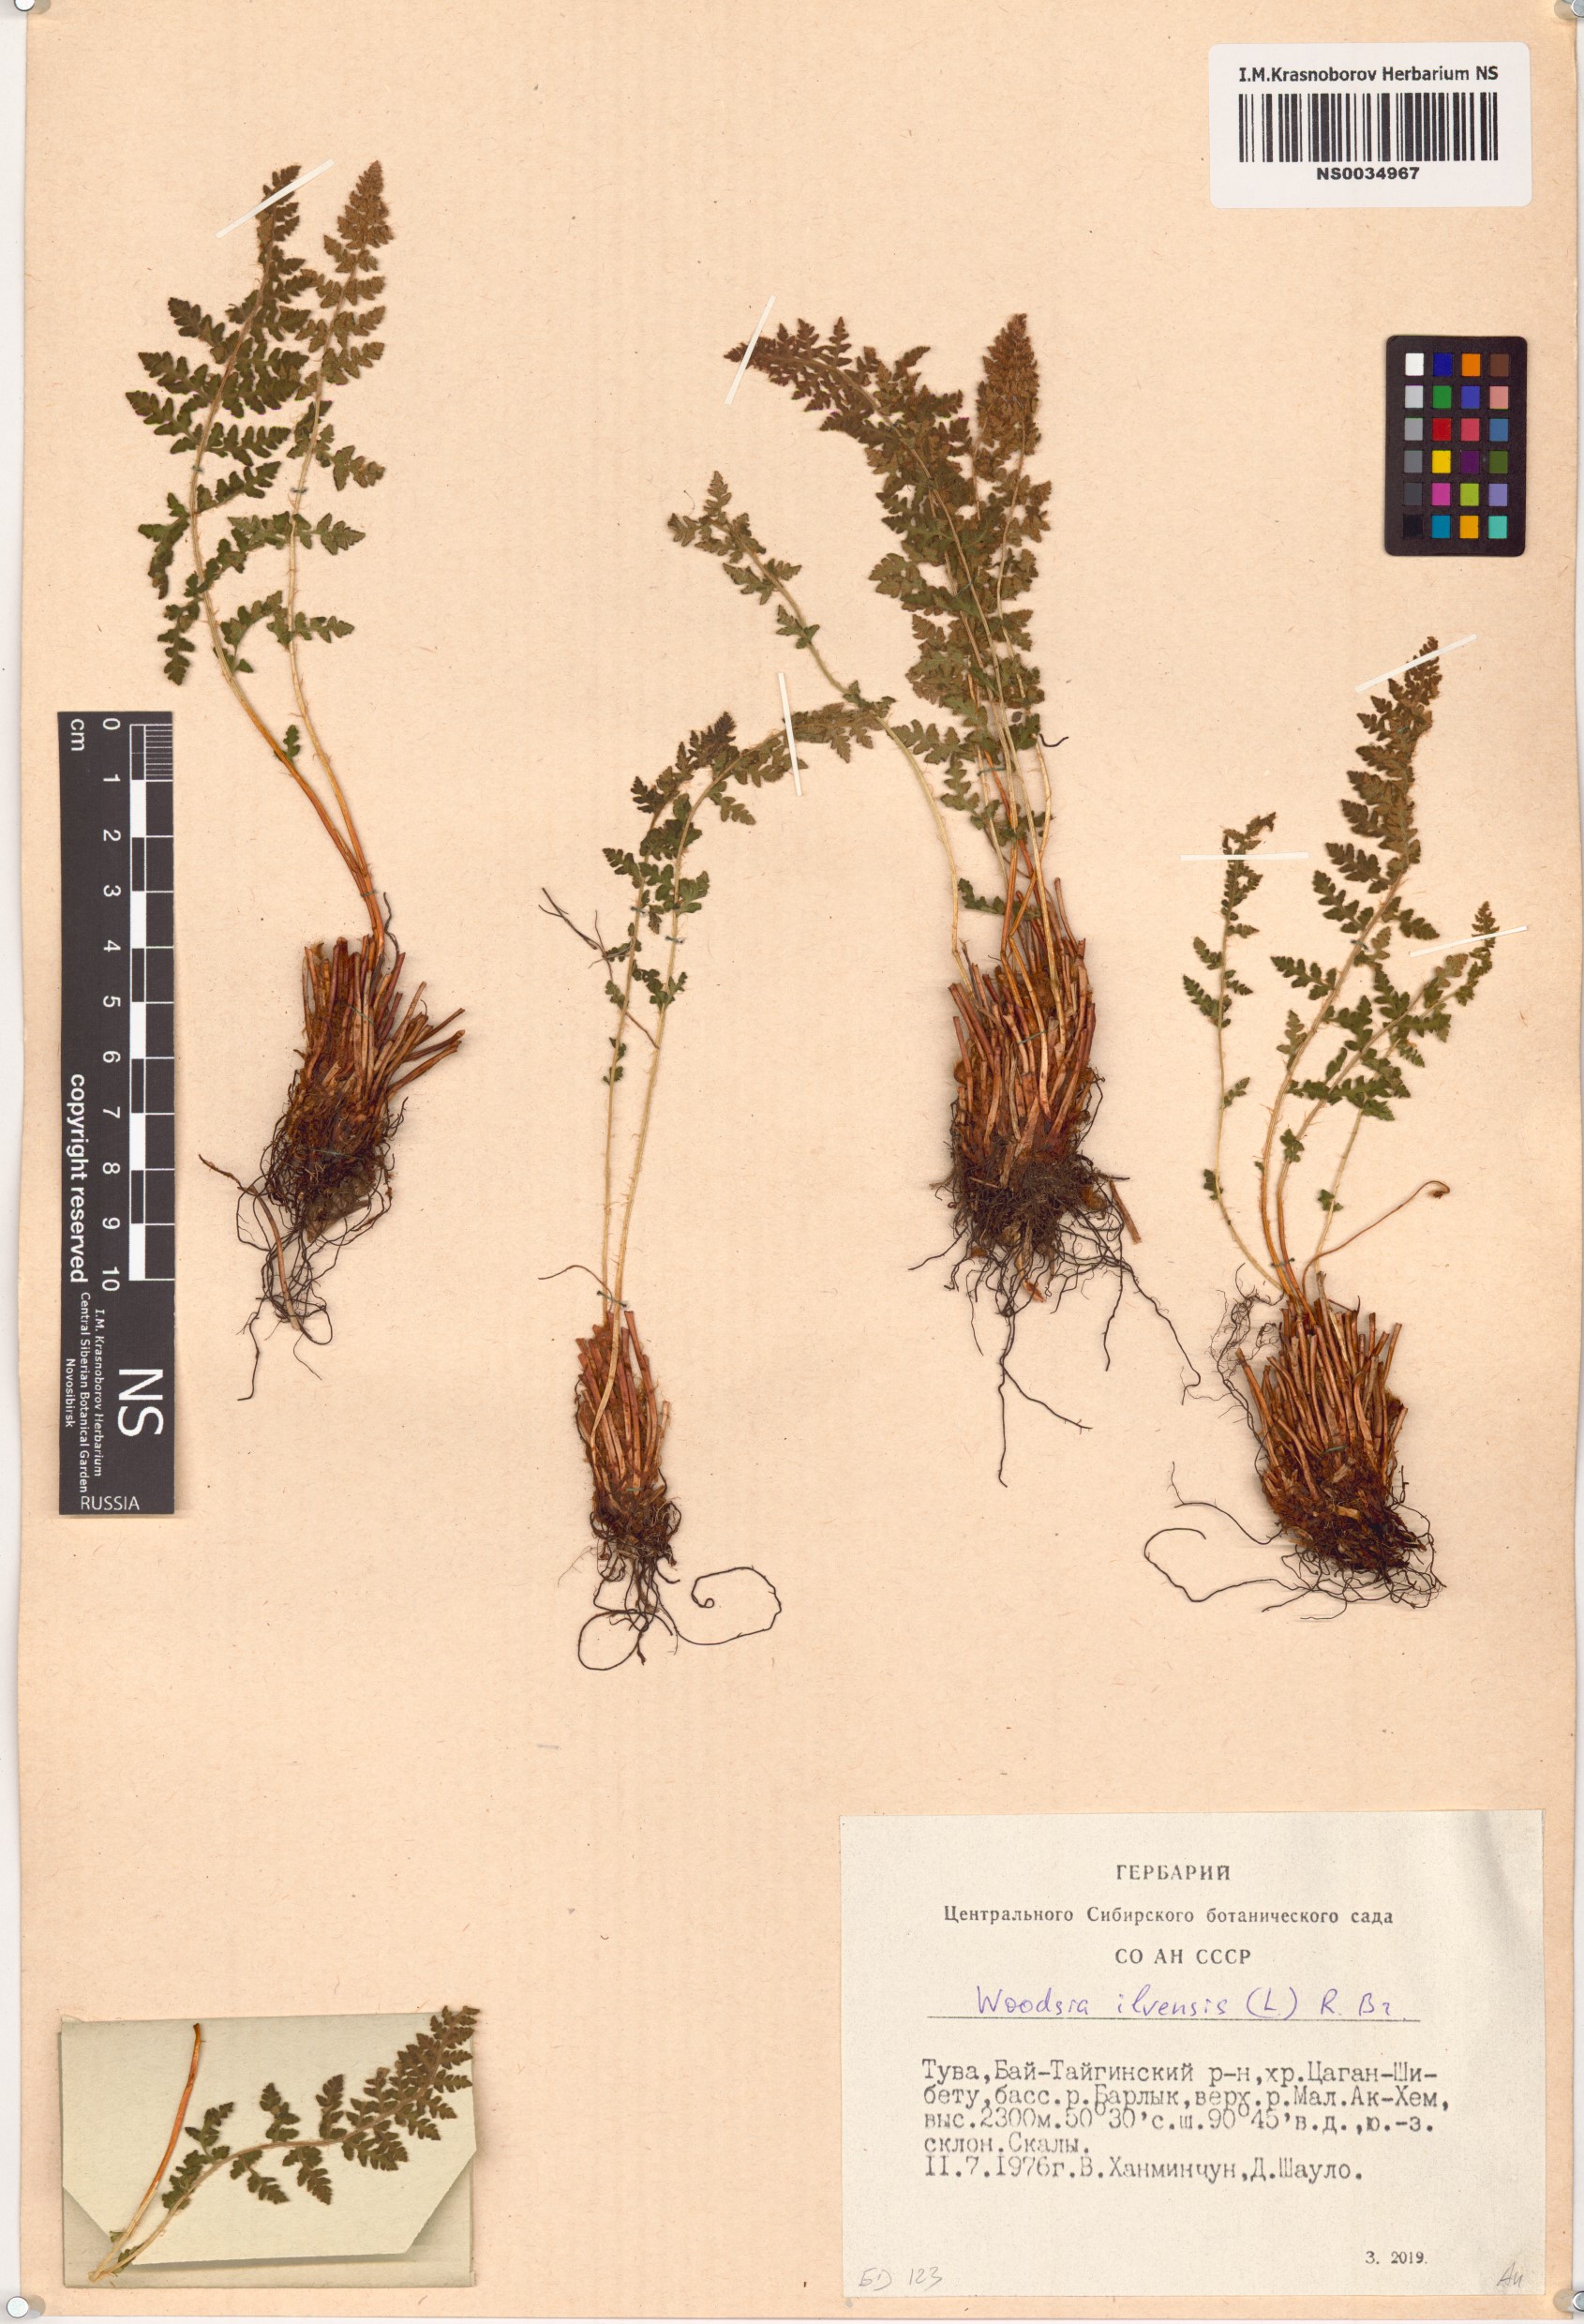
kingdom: Plantae
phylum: Tracheophyta
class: Polypodiopsida
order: Polypodiales
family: Woodsiaceae
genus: Woodsia
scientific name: Woodsia ilvensis
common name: Fragrant woodsia
